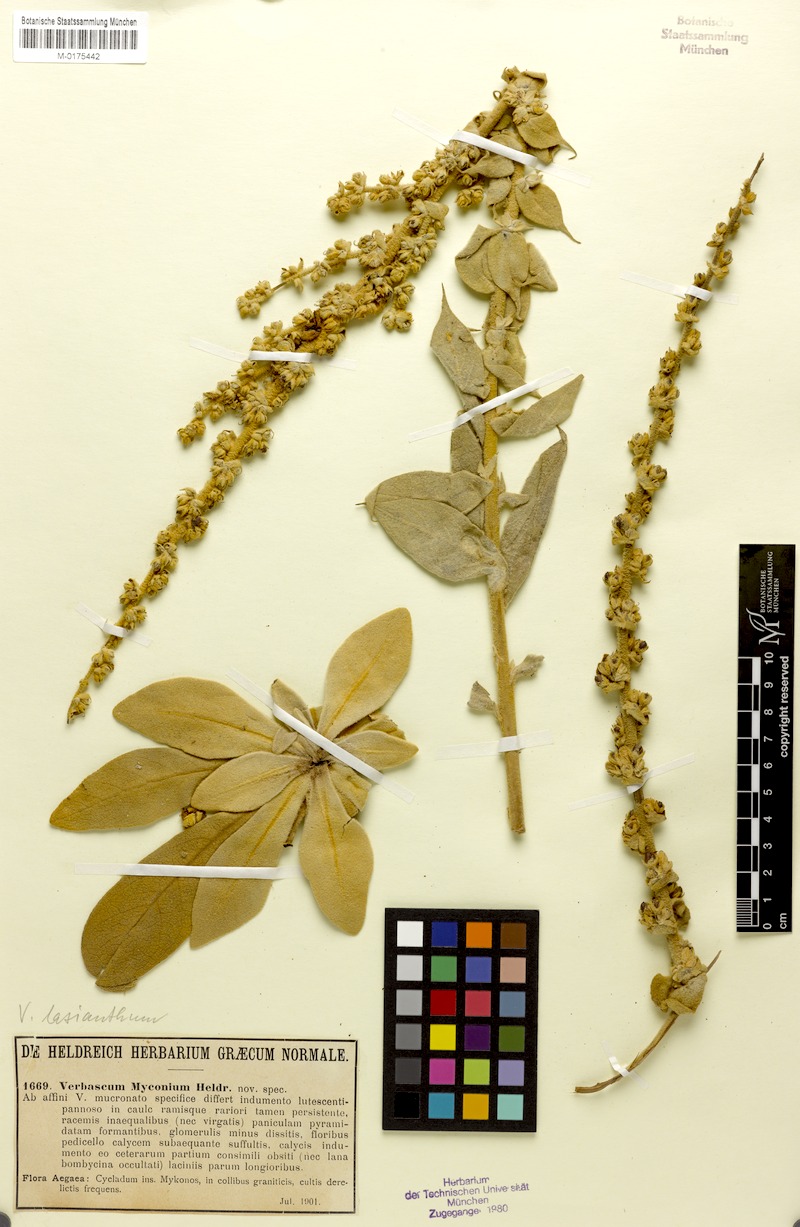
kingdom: Plantae
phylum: Tracheophyta
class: Magnoliopsida
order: Lamiales
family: Scrophulariaceae
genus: Verbascum
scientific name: Verbascum lasianthum
